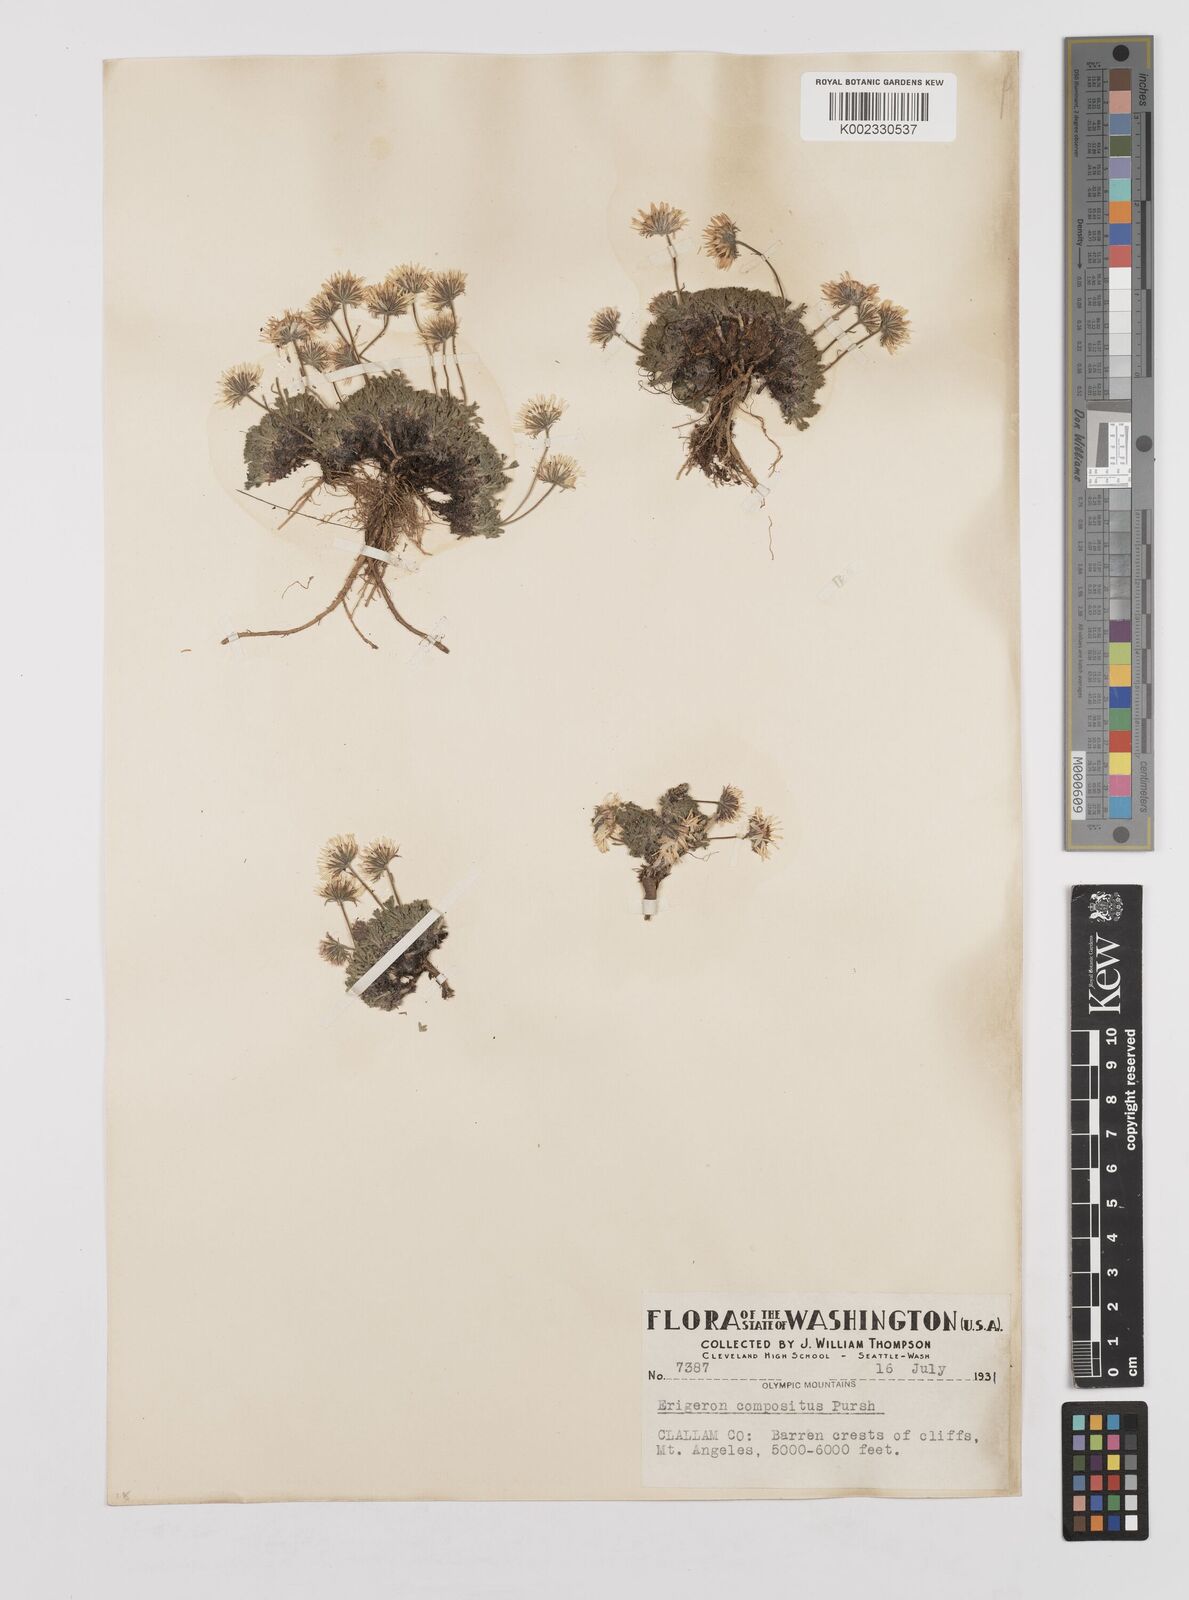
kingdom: Plantae
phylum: Tracheophyta
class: Magnoliopsida
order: Asterales
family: Asteraceae
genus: Erigeron
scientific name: Erigeron compositus
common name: Dwarf mountain fleabane
